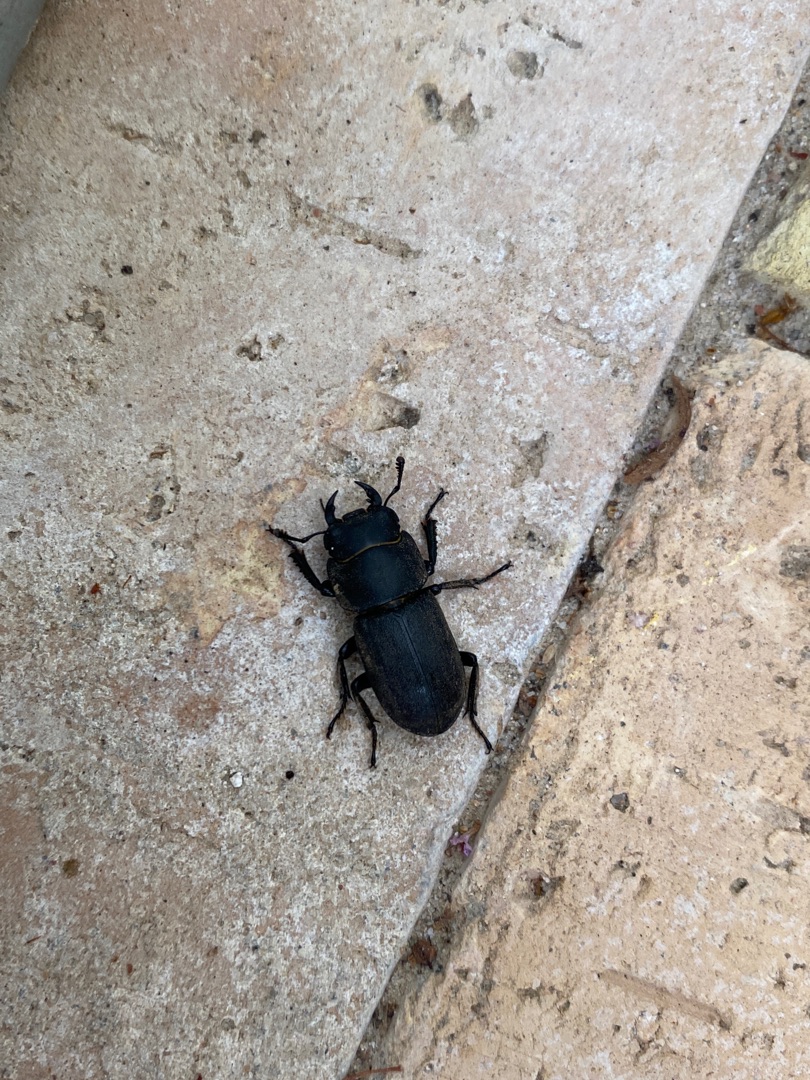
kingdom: Animalia
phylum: Arthropoda
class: Insecta
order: Coleoptera
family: Lucanidae
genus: Dorcus
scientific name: Dorcus parallelipipedus
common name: Bøghjort
